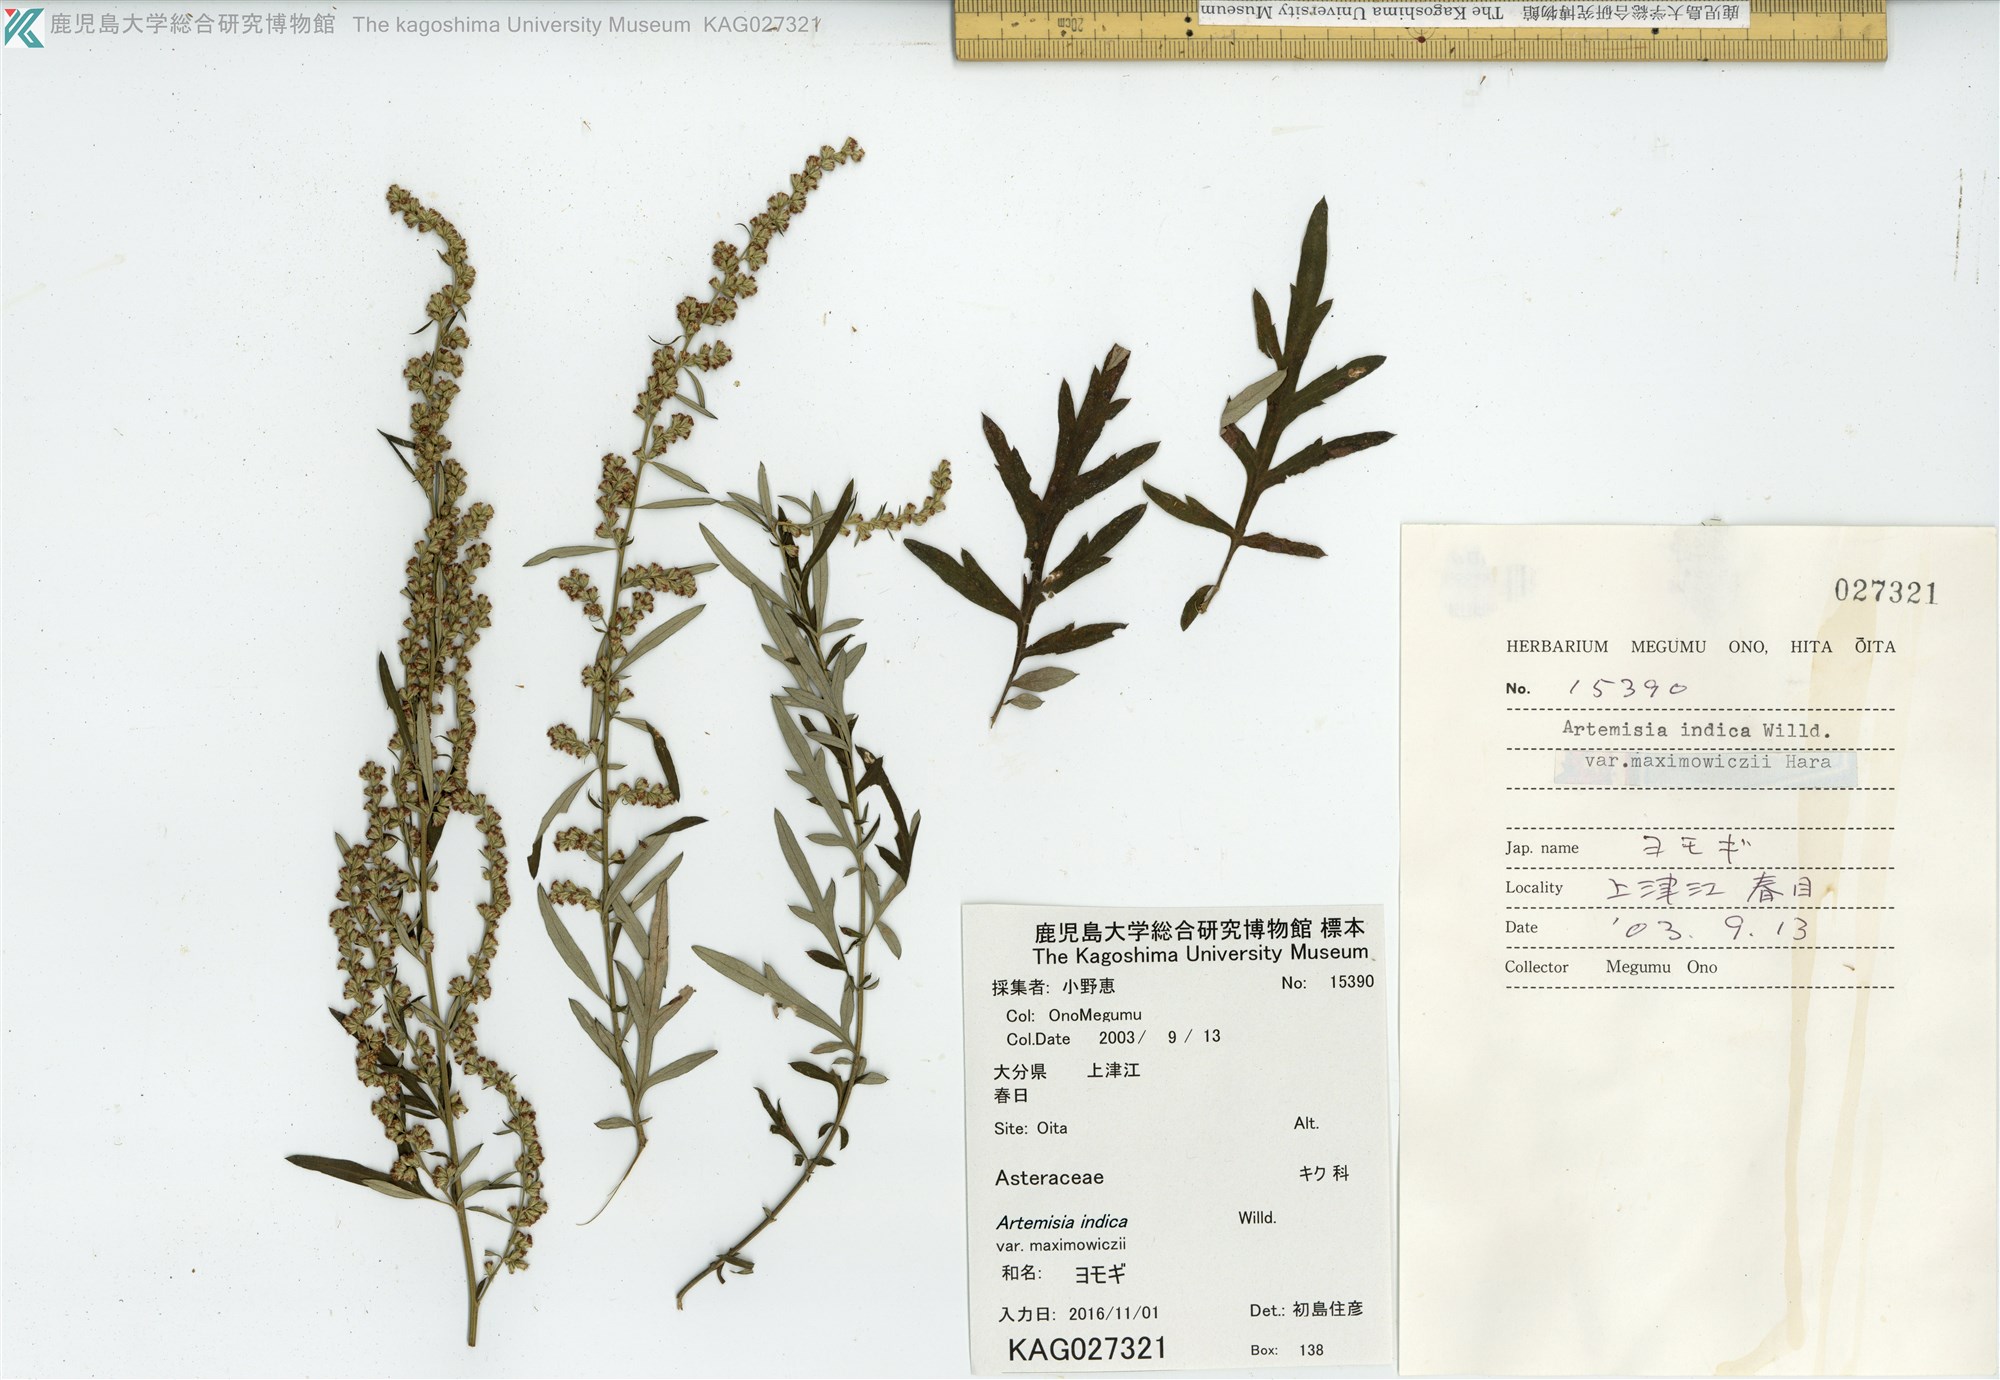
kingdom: Plantae
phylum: Tracheophyta
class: Magnoliopsida
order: Asterales
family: Asteraceae
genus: Artemisia
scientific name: Artemisia princeps
